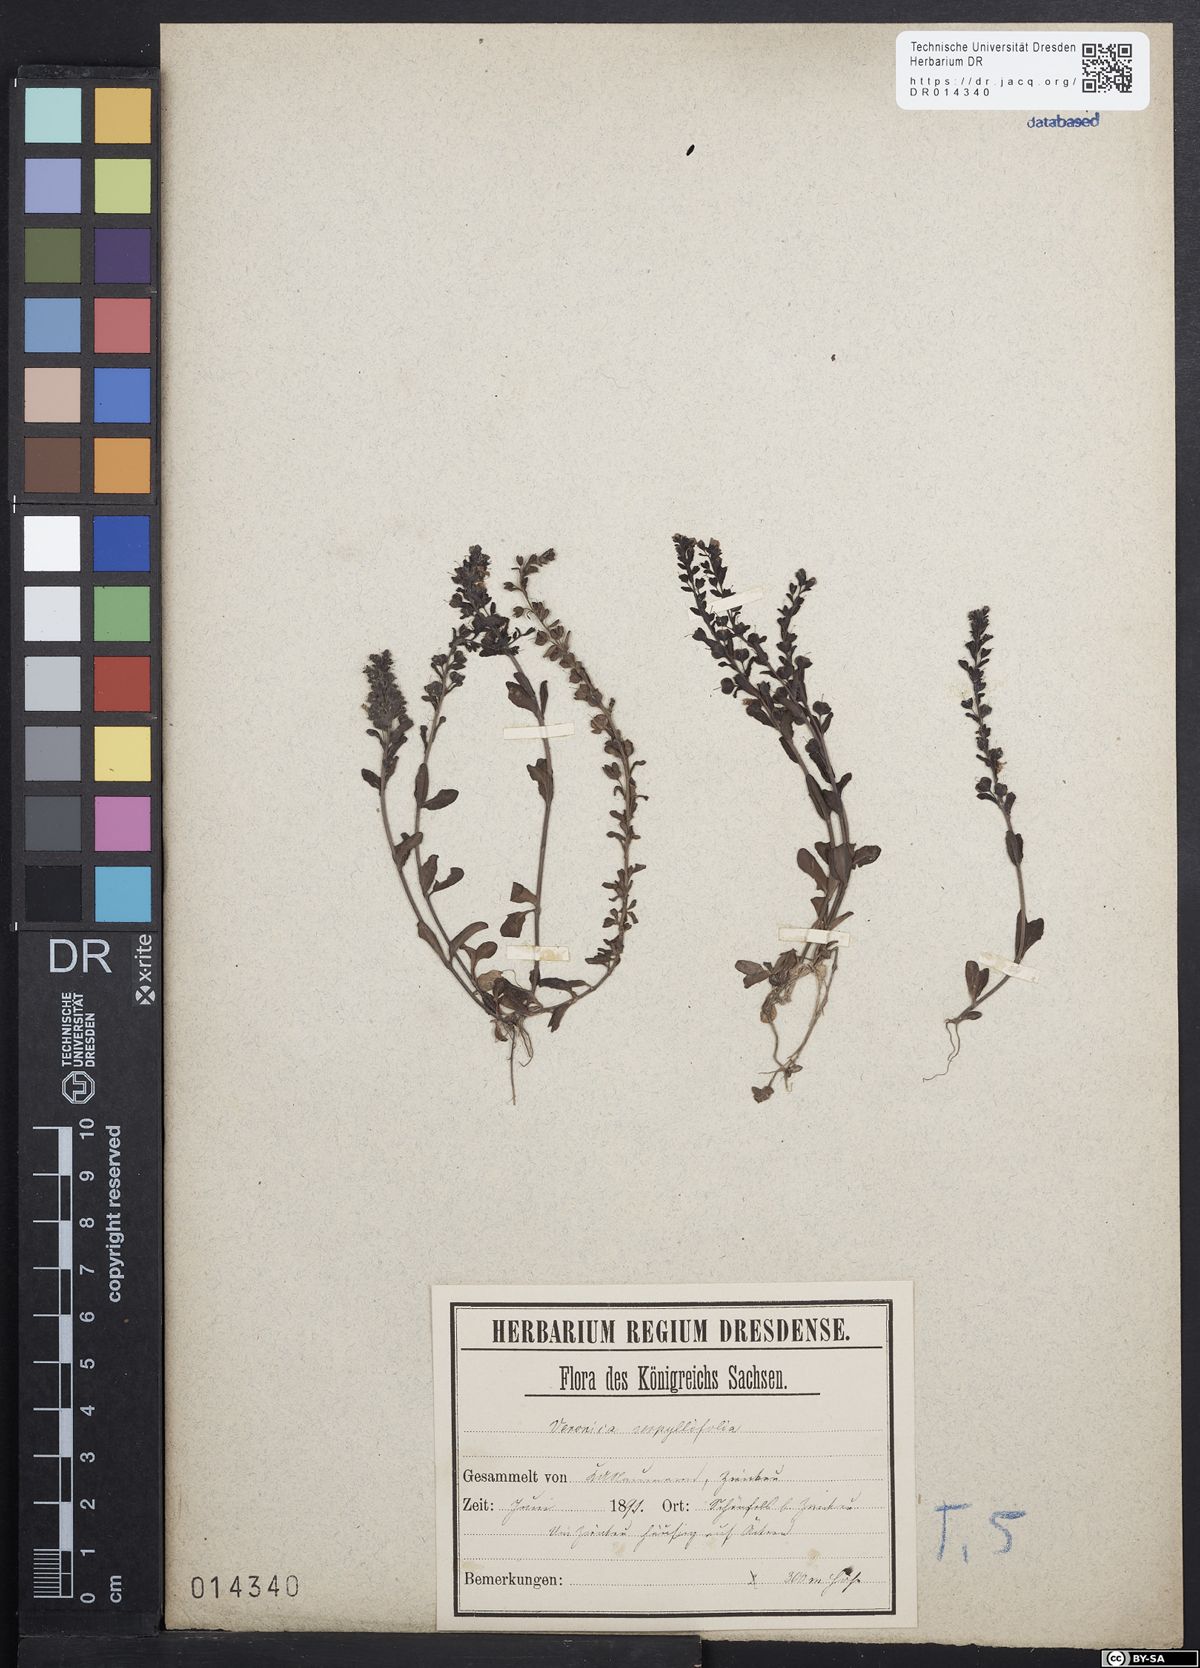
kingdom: Plantae
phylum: Tracheophyta
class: Magnoliopsida
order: Lamiales
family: Plantaginaceae
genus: Veronica
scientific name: Veronica serpyllifolia
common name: Thyme-leaved speedwell
